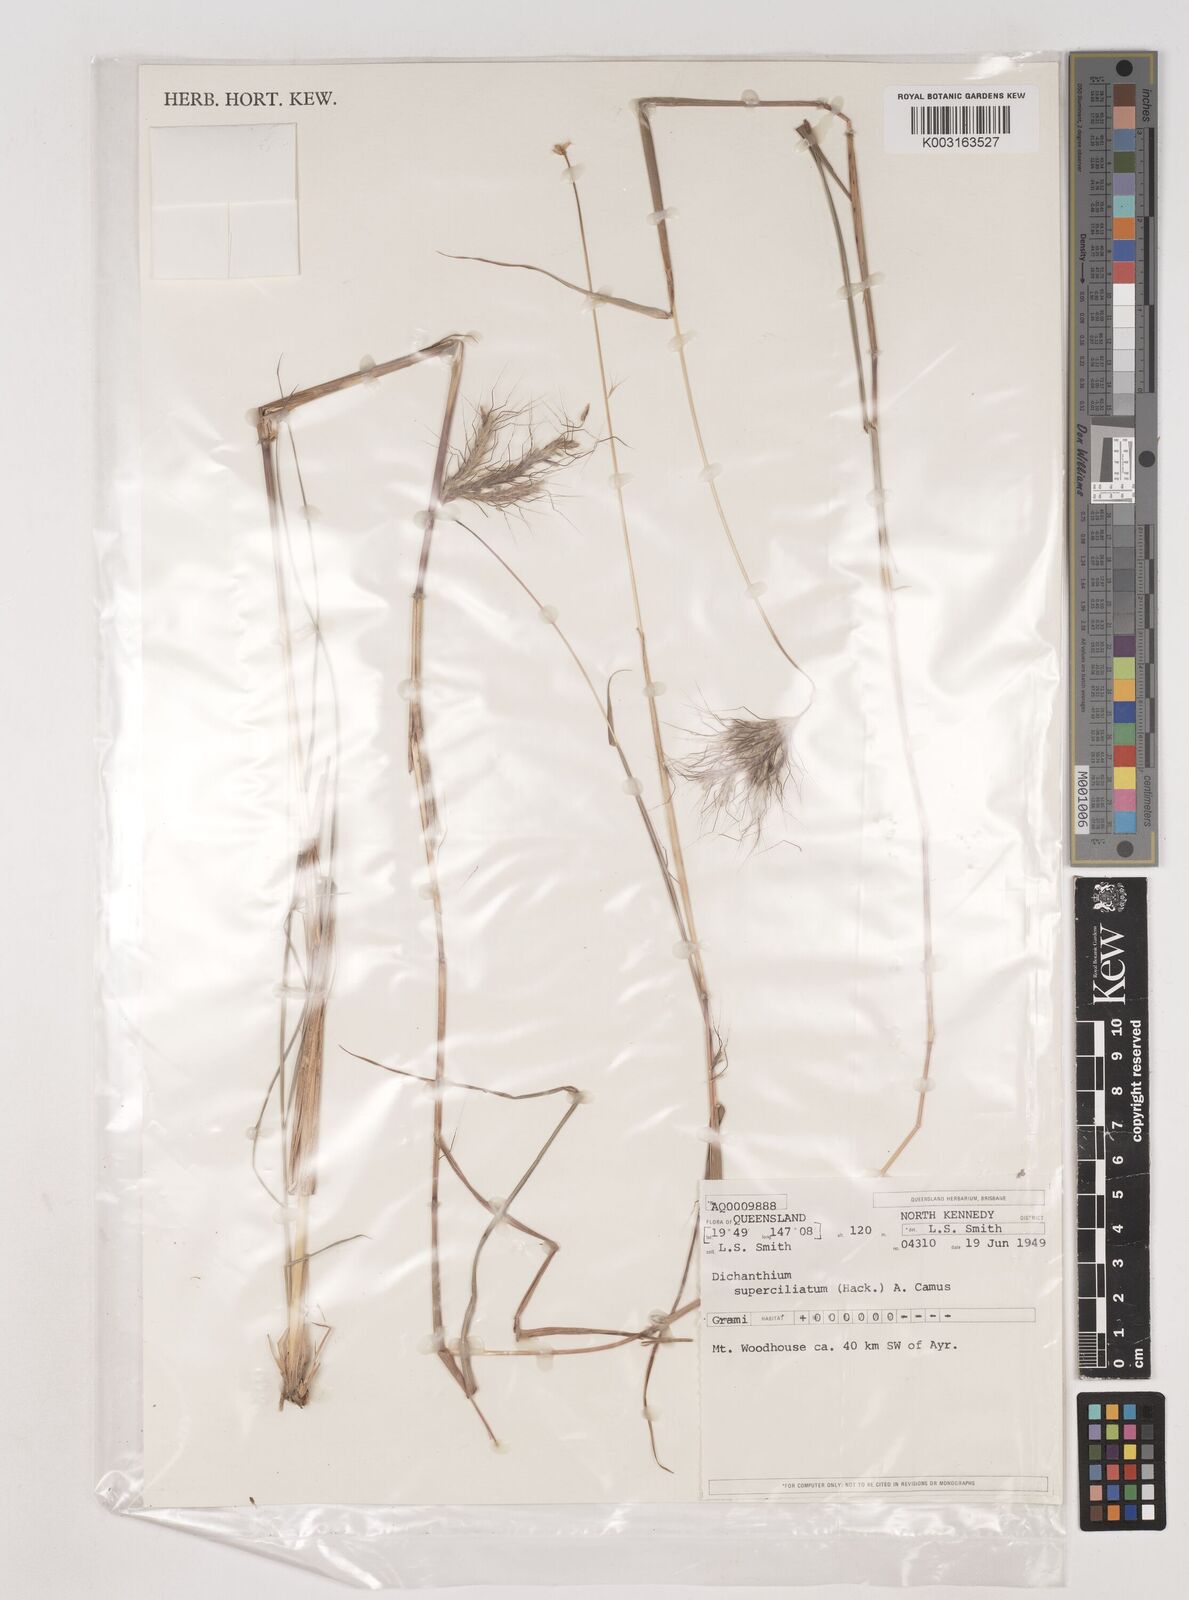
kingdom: Plantae
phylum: Tracheophyta
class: Liliopsida
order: Poales
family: Poaceae
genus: Dichanthium
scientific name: Dichanthium sericeum
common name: Silky bluestem
